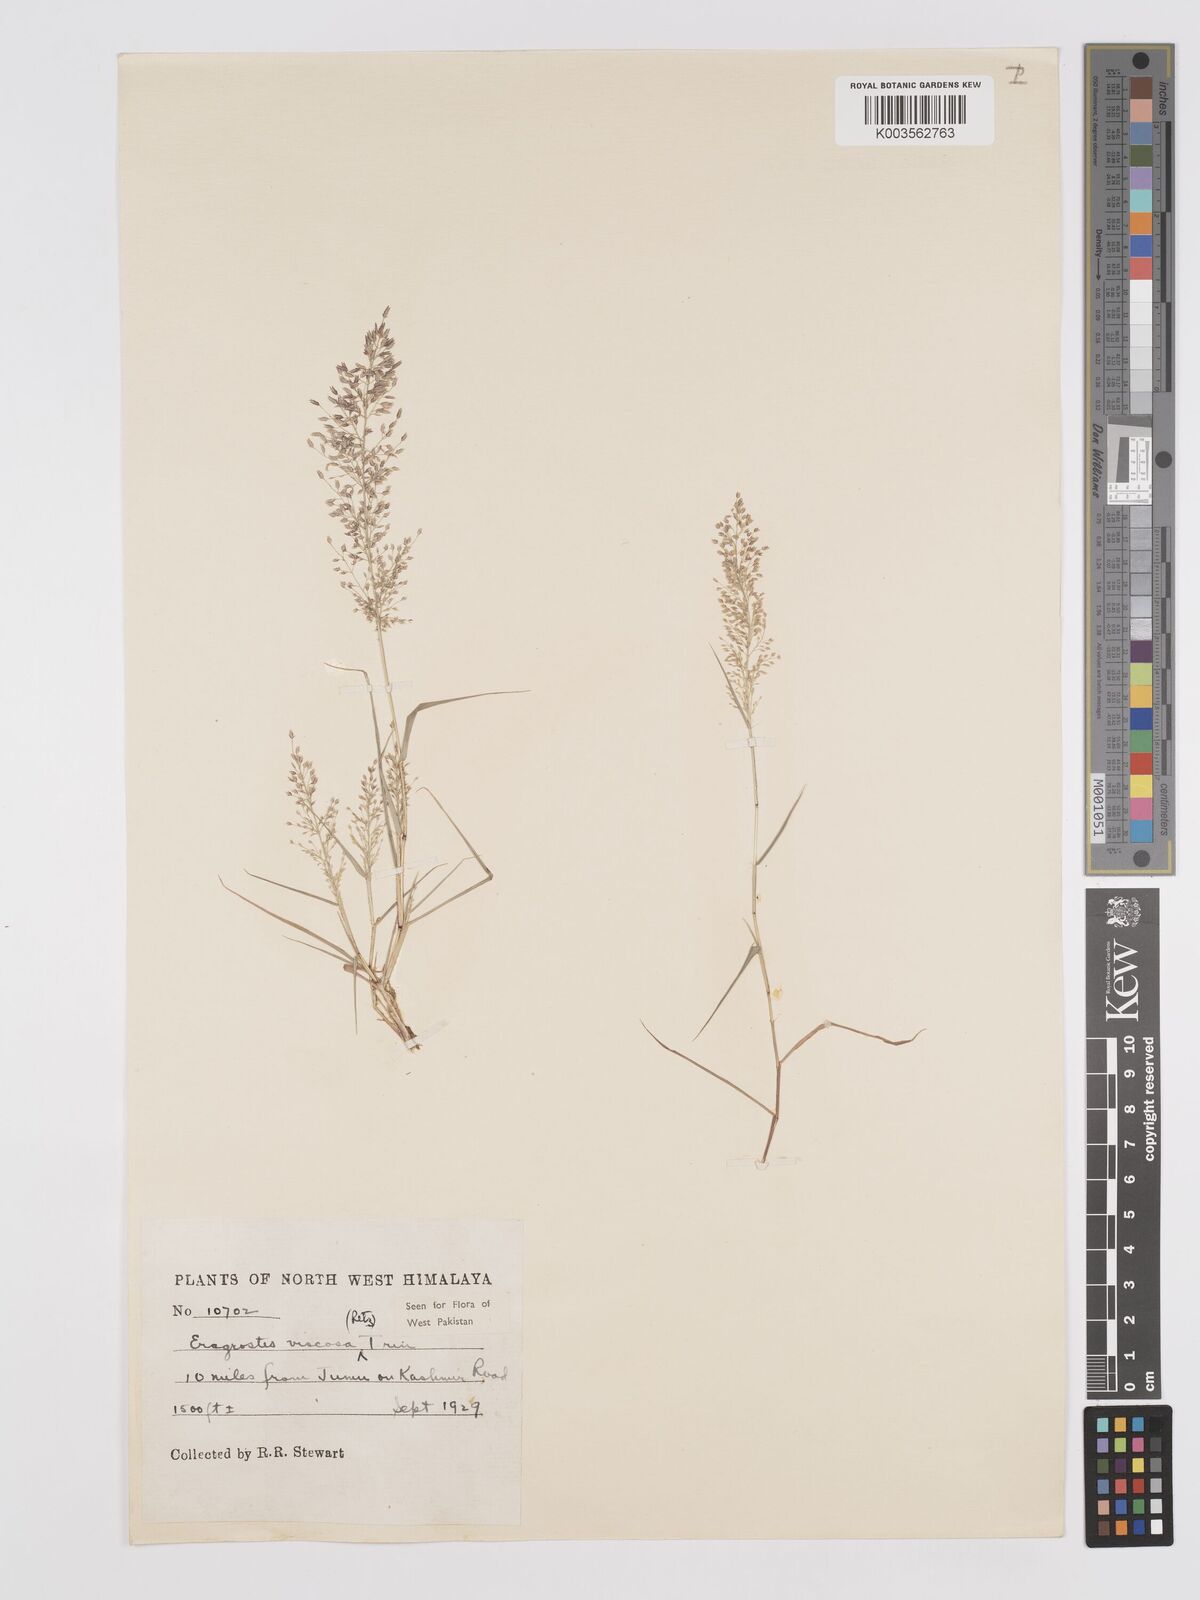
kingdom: Plantae
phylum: Tracheophyta
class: Liliopsida
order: Poales
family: Poaceae
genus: Eragrostis
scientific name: Eragrostis viscosa
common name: Sticky love grass
